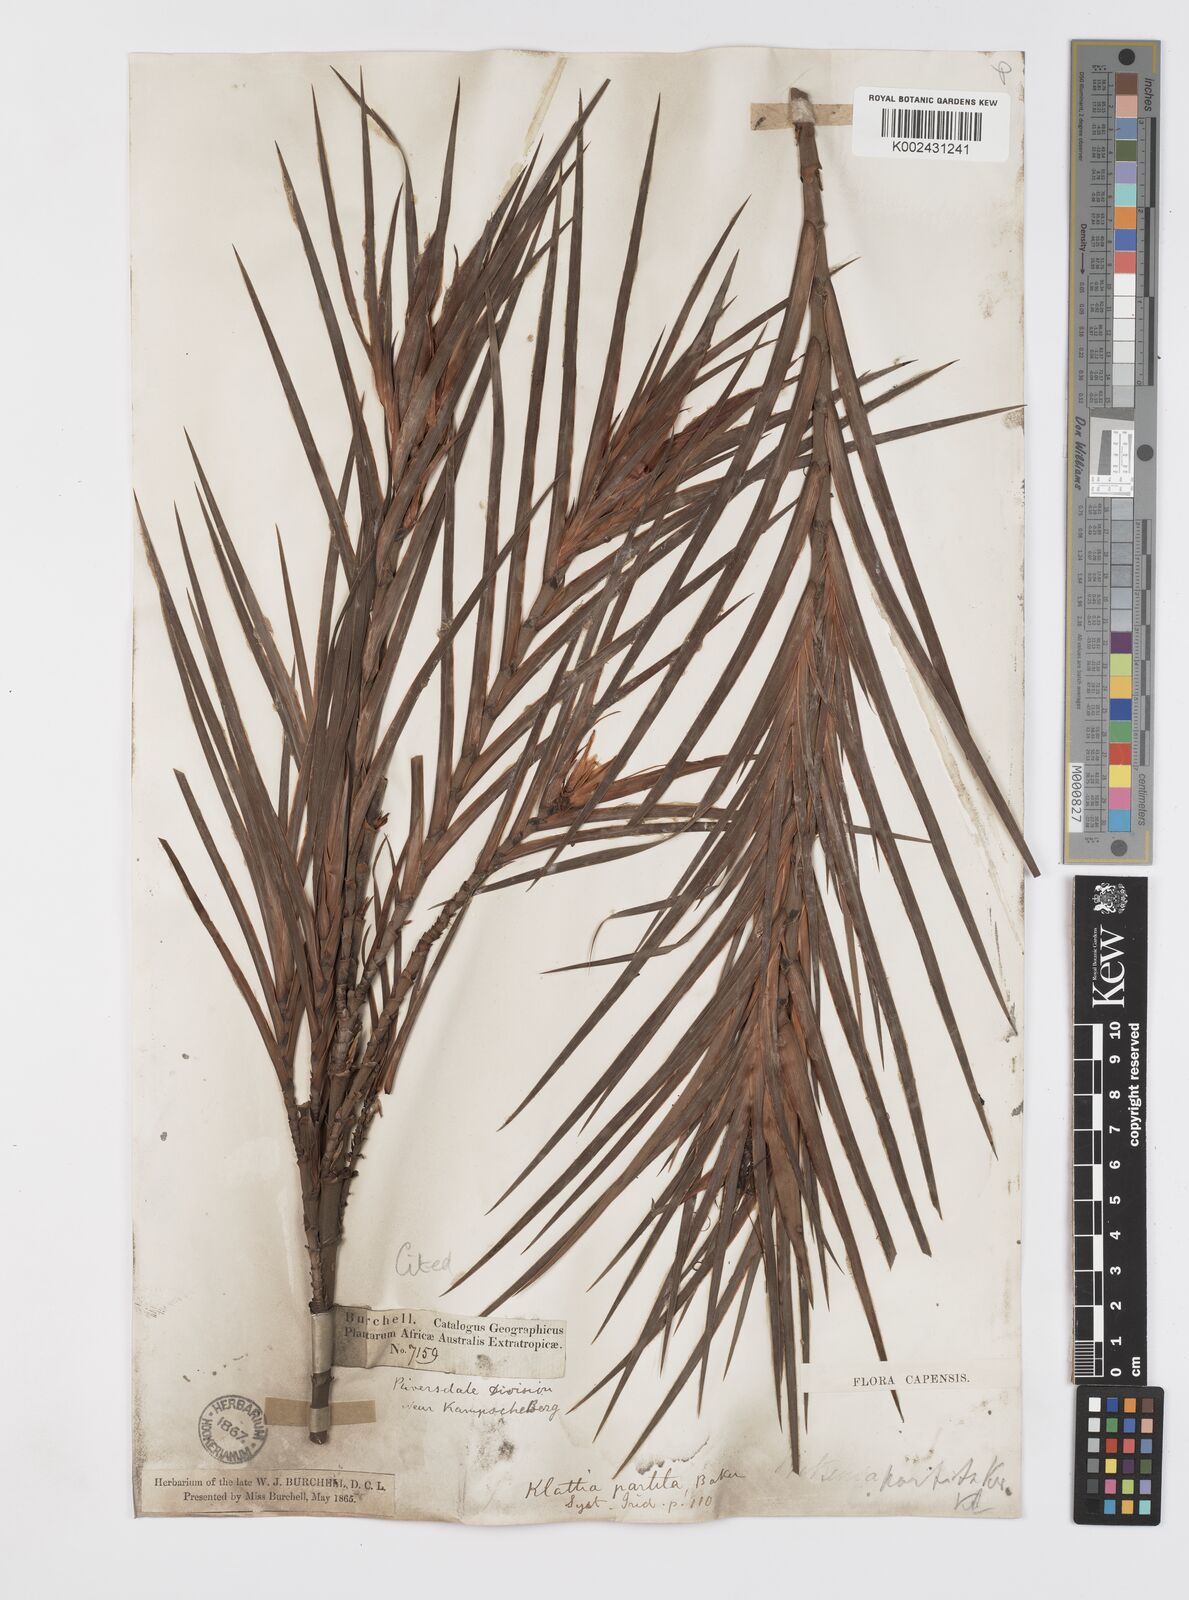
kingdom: Plantae
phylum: Tracheophyta
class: Liliopsida
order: Asparagales
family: Iridaceae
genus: Klattia
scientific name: Klattia partita
